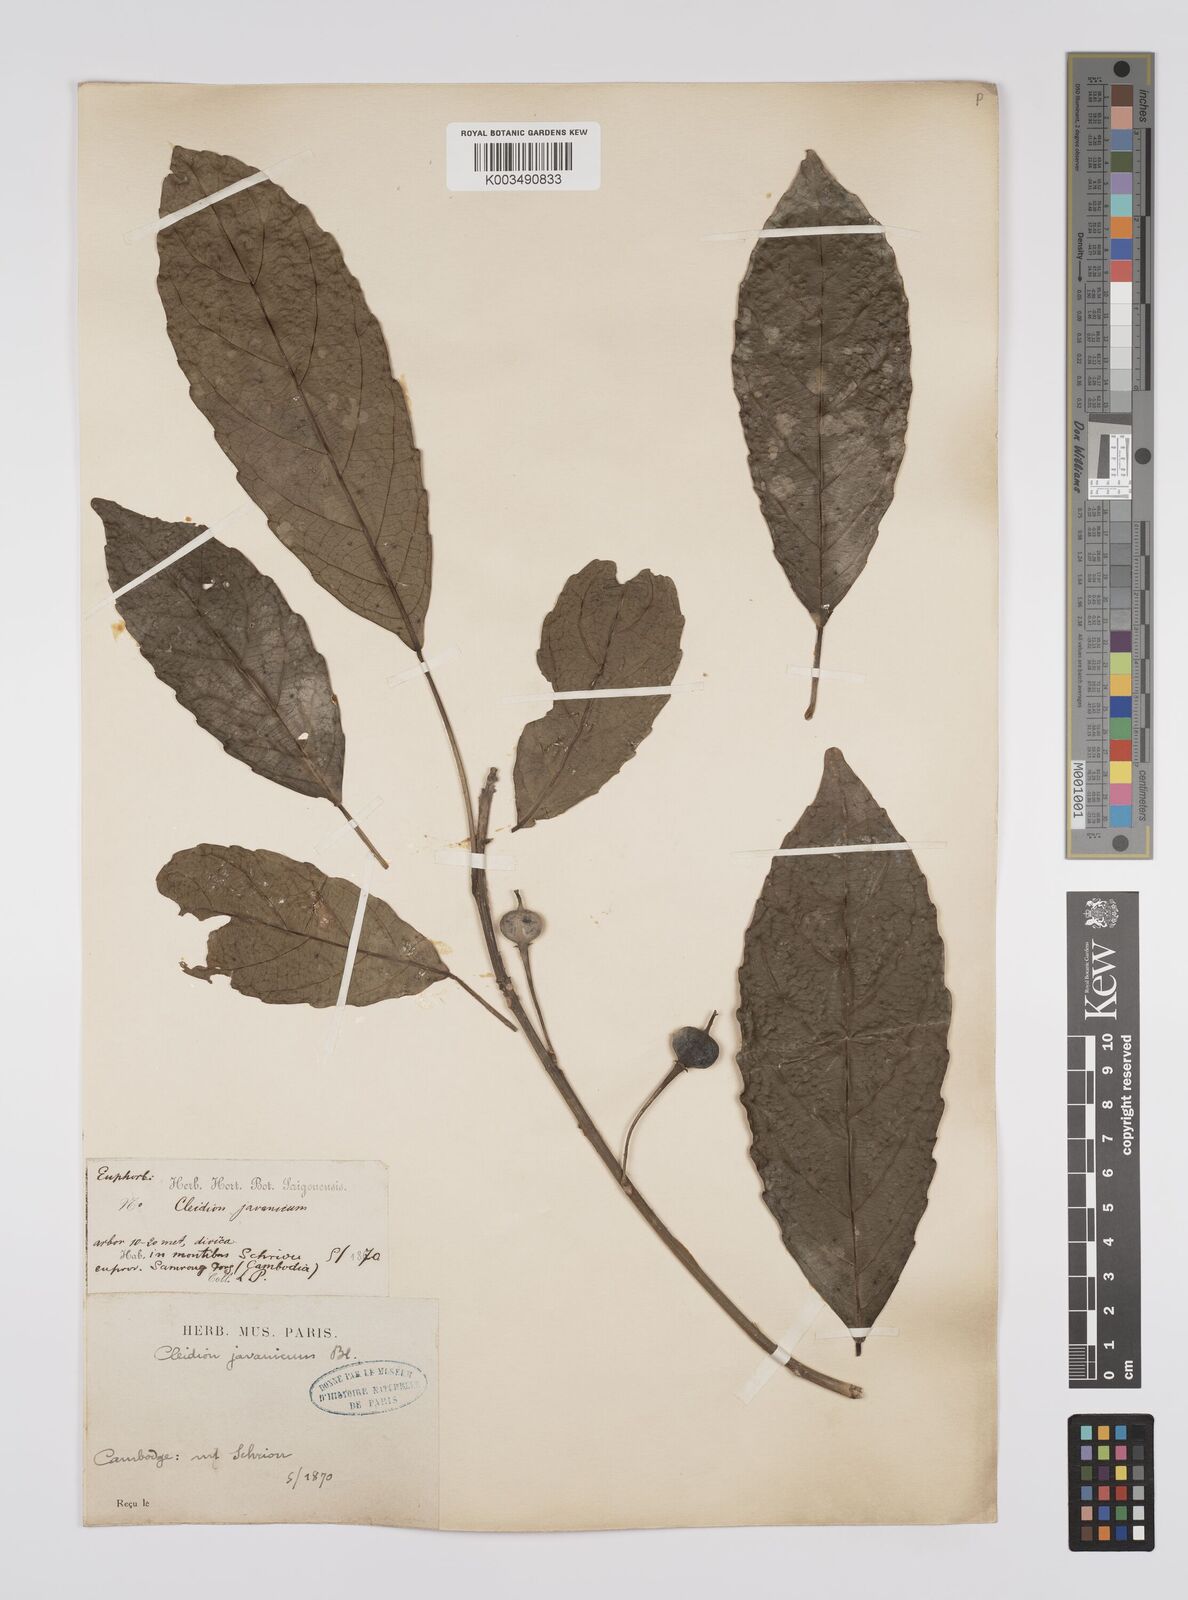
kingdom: Plantae
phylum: Tracheophyta
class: Magnoliopsida
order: Malpighiales
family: Euphorbiaceae
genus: Acalypha
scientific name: Acalypha spiciflora
